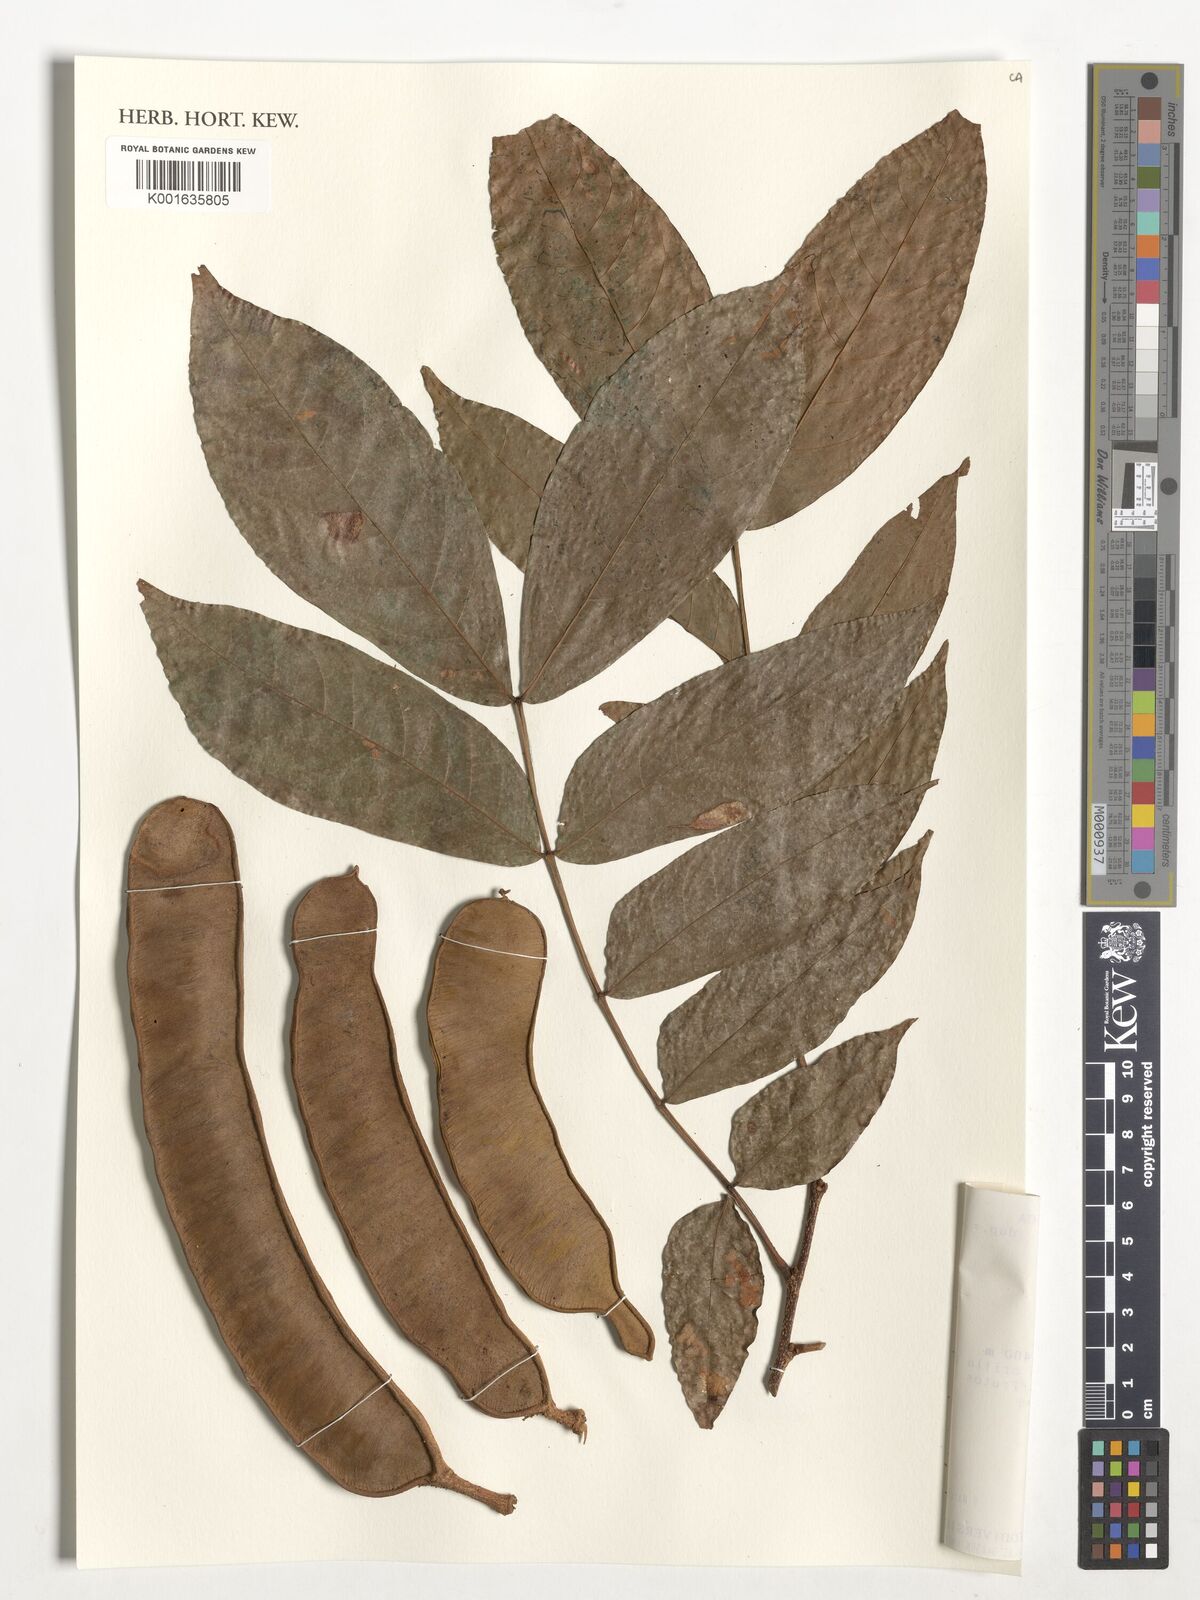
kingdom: Plantae
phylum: Tracheophyta
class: Magnoliopsida
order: Fabales
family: Fabaceae
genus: Inga
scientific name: Inga samanensis
